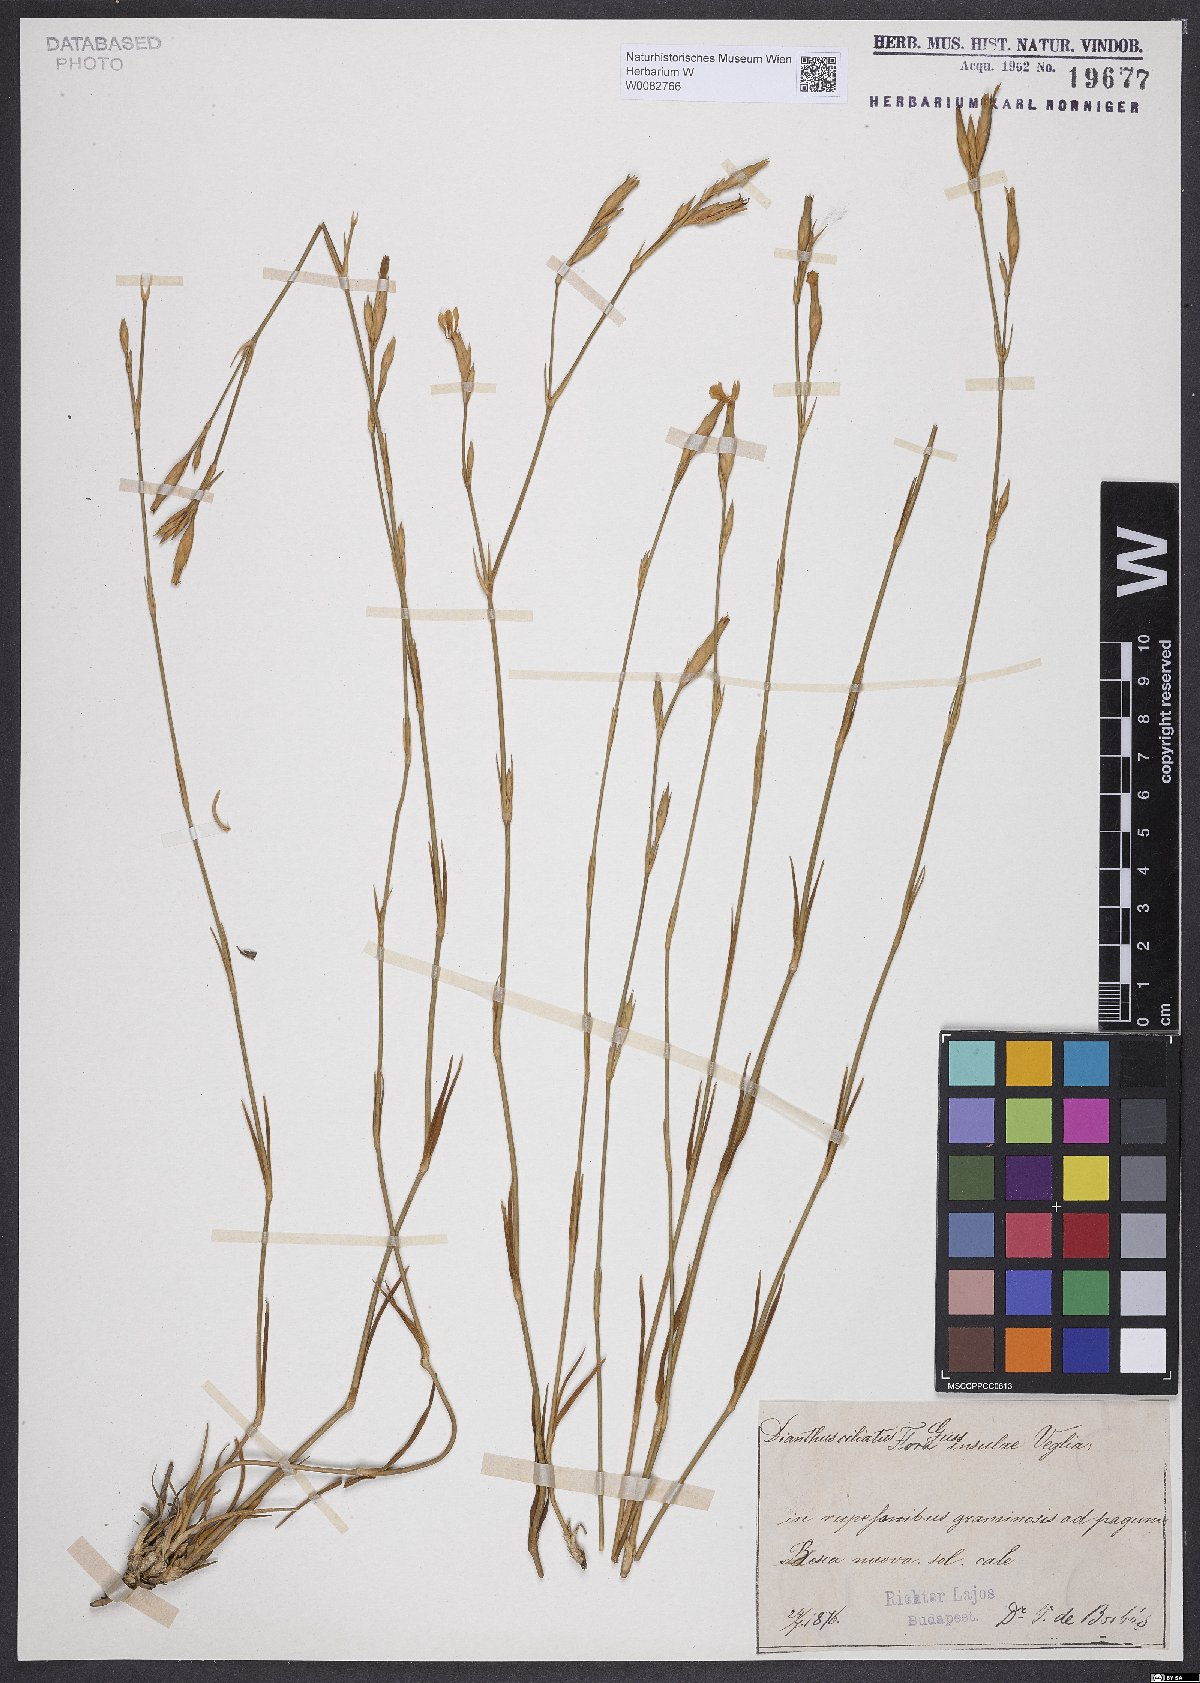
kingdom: Plantae
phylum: Tracheophyta
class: Magnoliopsida
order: Caryophyllales
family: Caryophyllaceae
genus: Dianthus
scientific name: Dianthus ciliatus
